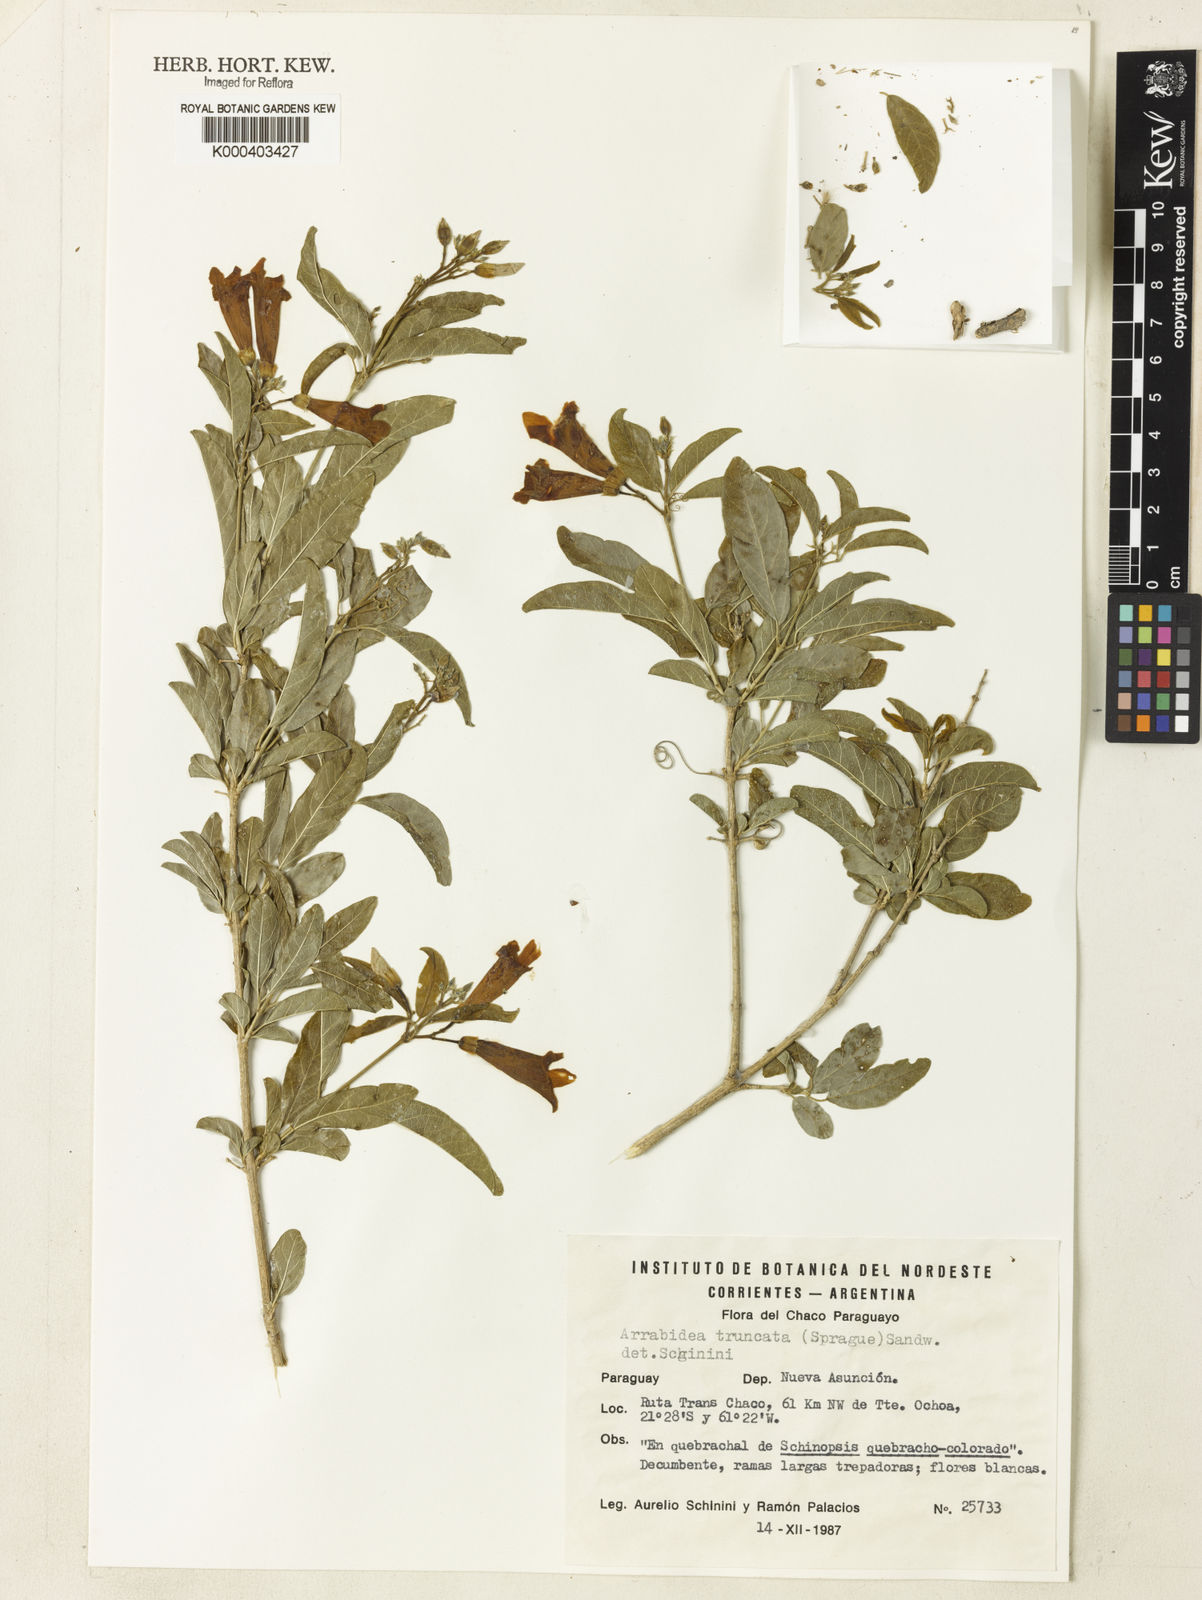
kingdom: Plantae
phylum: Tracheophyta
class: Magnoliopsida
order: Lamiales
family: Bignoniaceae
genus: Fridericia
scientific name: Fridericia truncata
